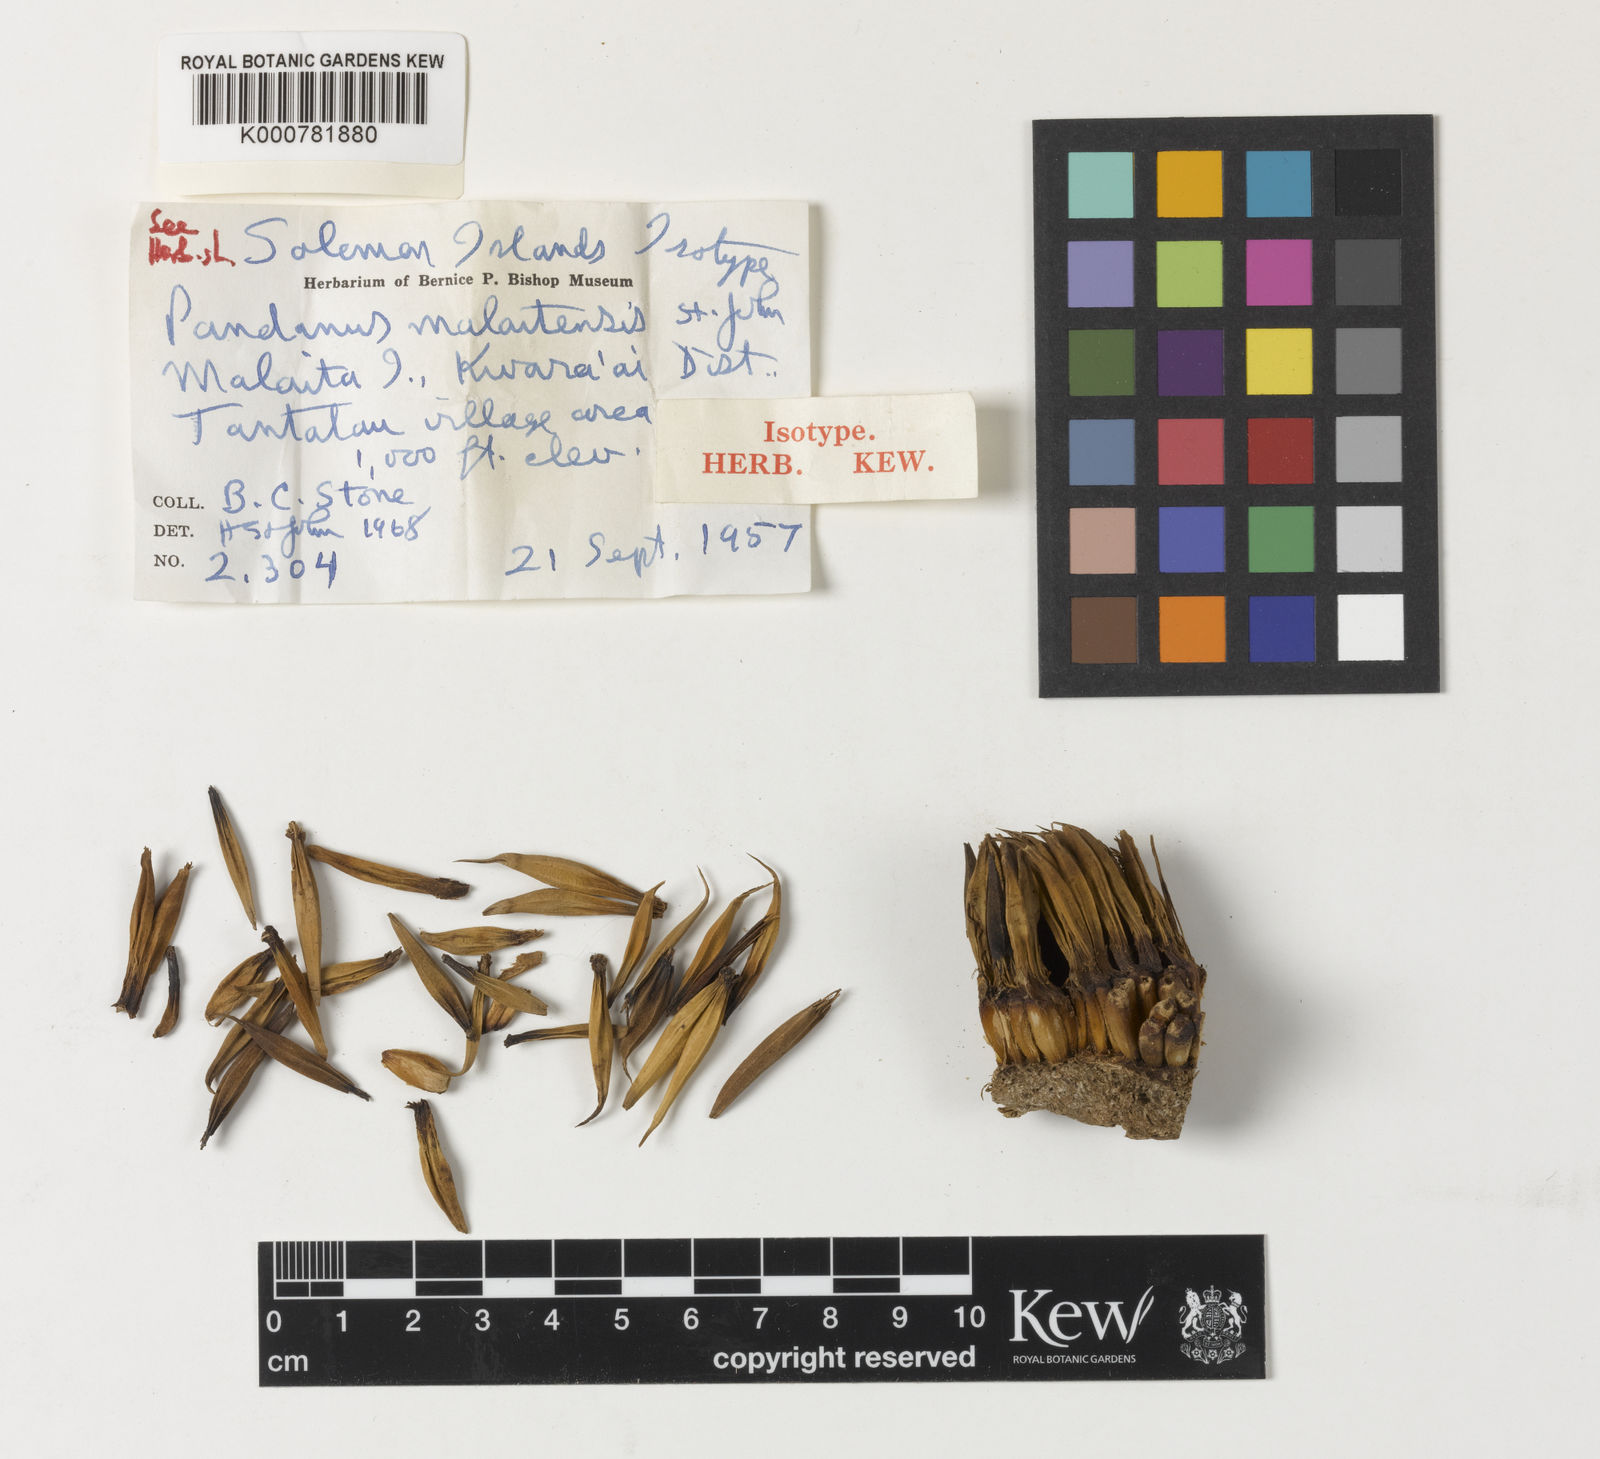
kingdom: Plantae
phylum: Tracheophyta
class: Liliopsida
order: Pandanales
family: Pandanaceae
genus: Pandanus
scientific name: Pandanus
